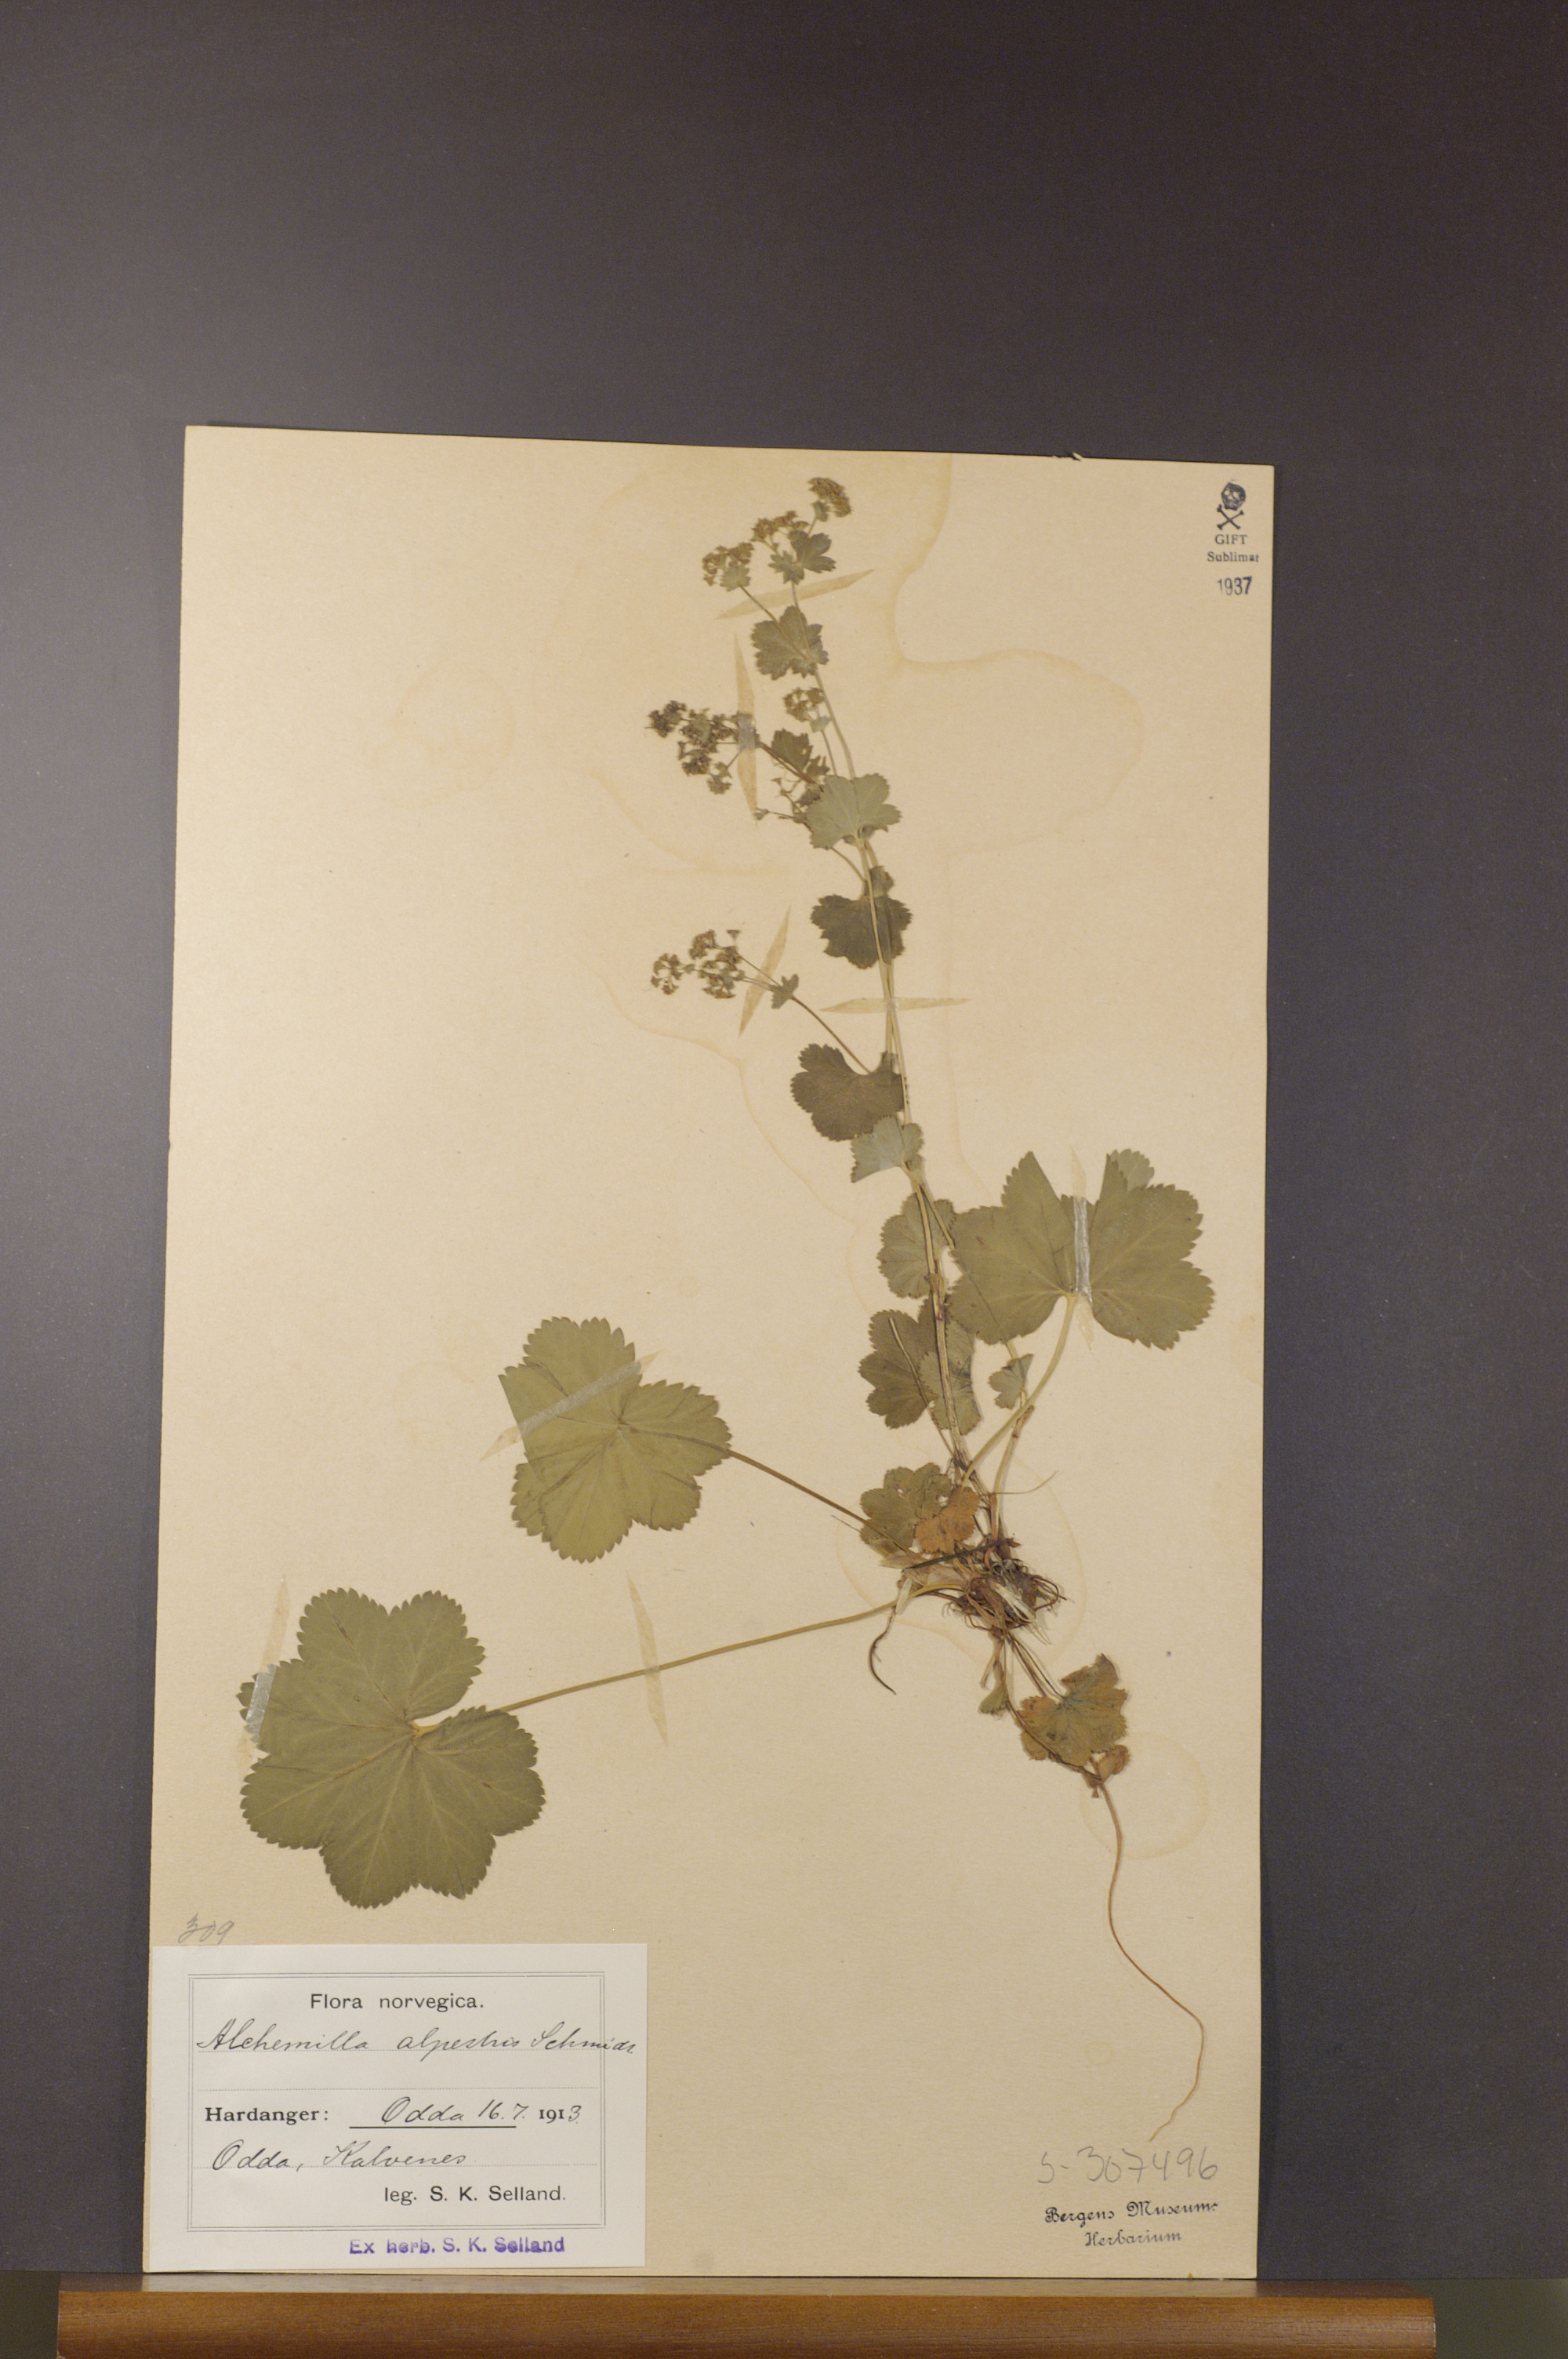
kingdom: Plantae
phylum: Tracheophyta
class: Magnoliopsida
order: Rosales
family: Rosaceae
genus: Alchemilla
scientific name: Alchemilla glabra
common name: Smooth lady's-mantle
